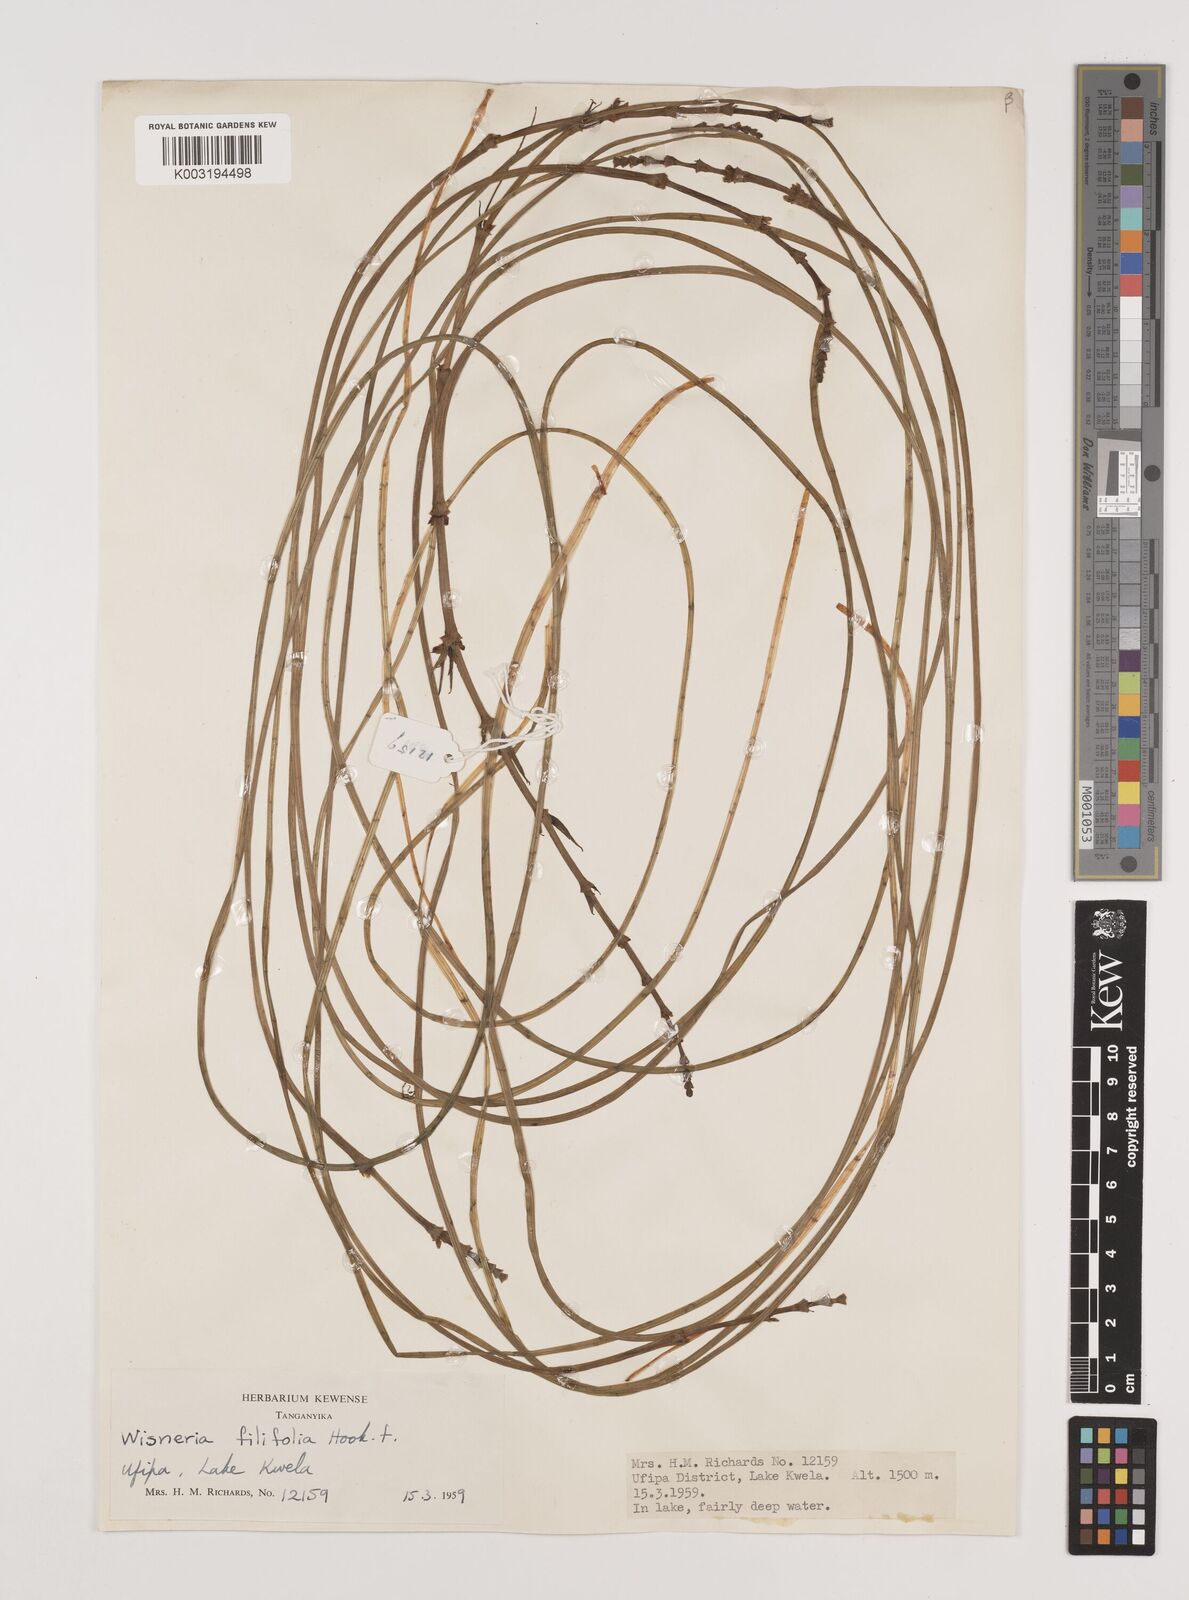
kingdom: Plantae
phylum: Tracheophyta
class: Liliopsida
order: Alismatales
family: Alismataceae
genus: Wiesneria
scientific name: Wiesneria filifolia
